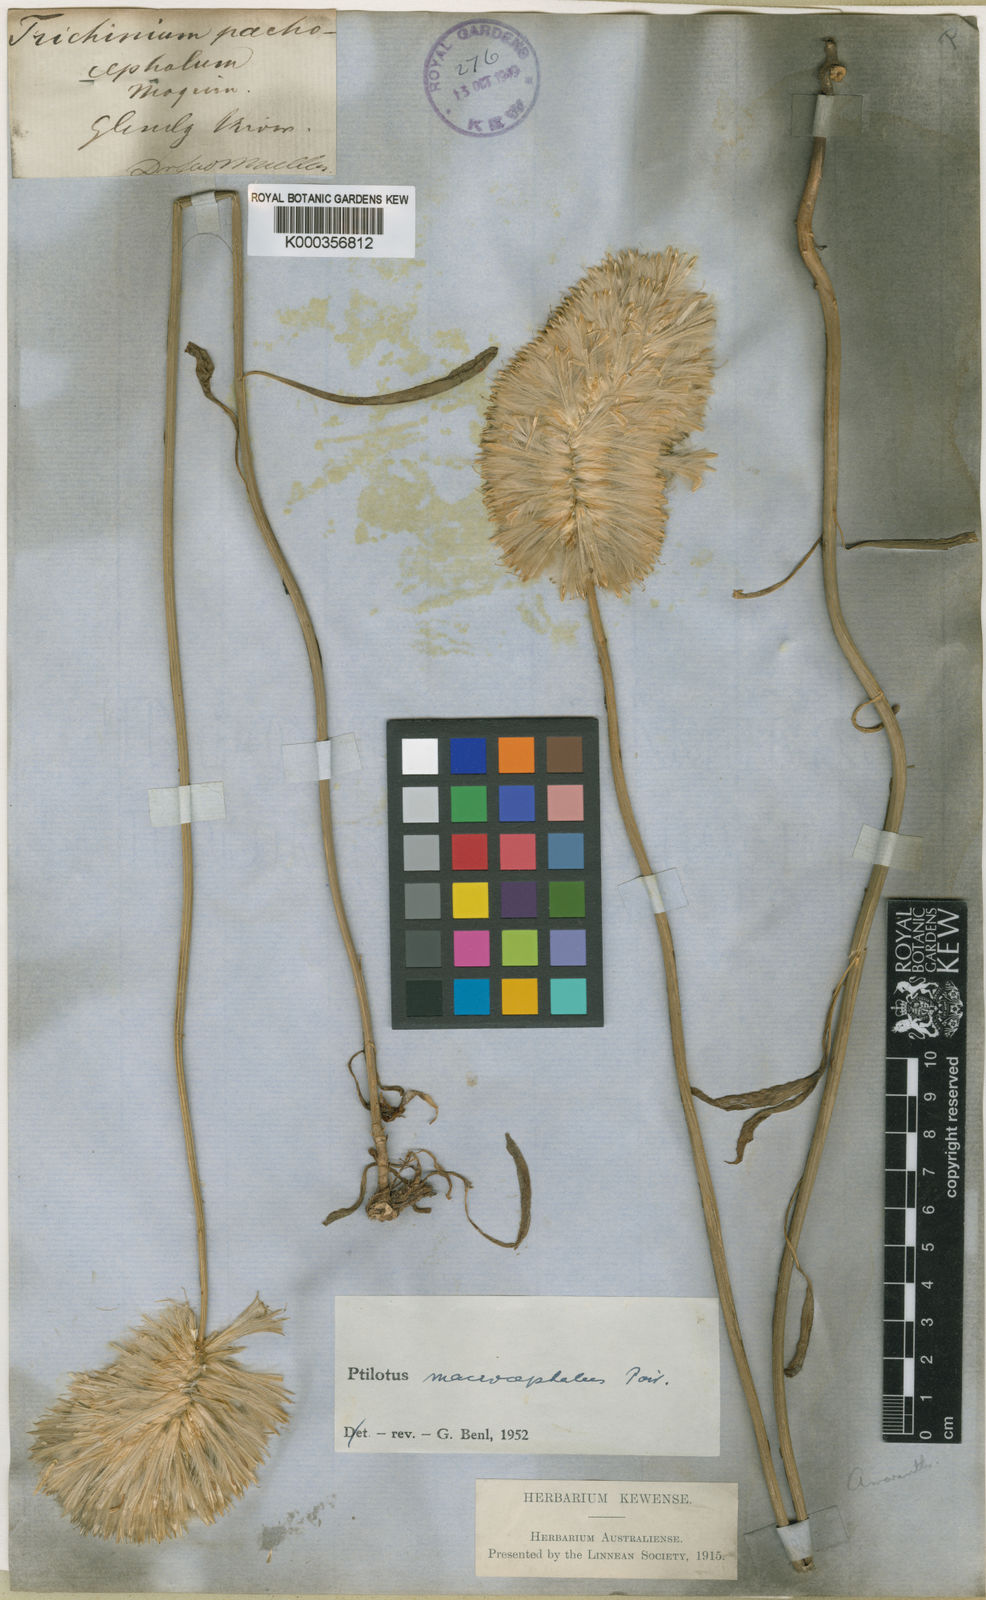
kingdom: Plantae
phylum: Tracheophyta
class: Magnoliopsida
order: Caryophyllales
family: Amaranthaceae
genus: Ptilotus
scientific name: Ptilotus macrocephalus
